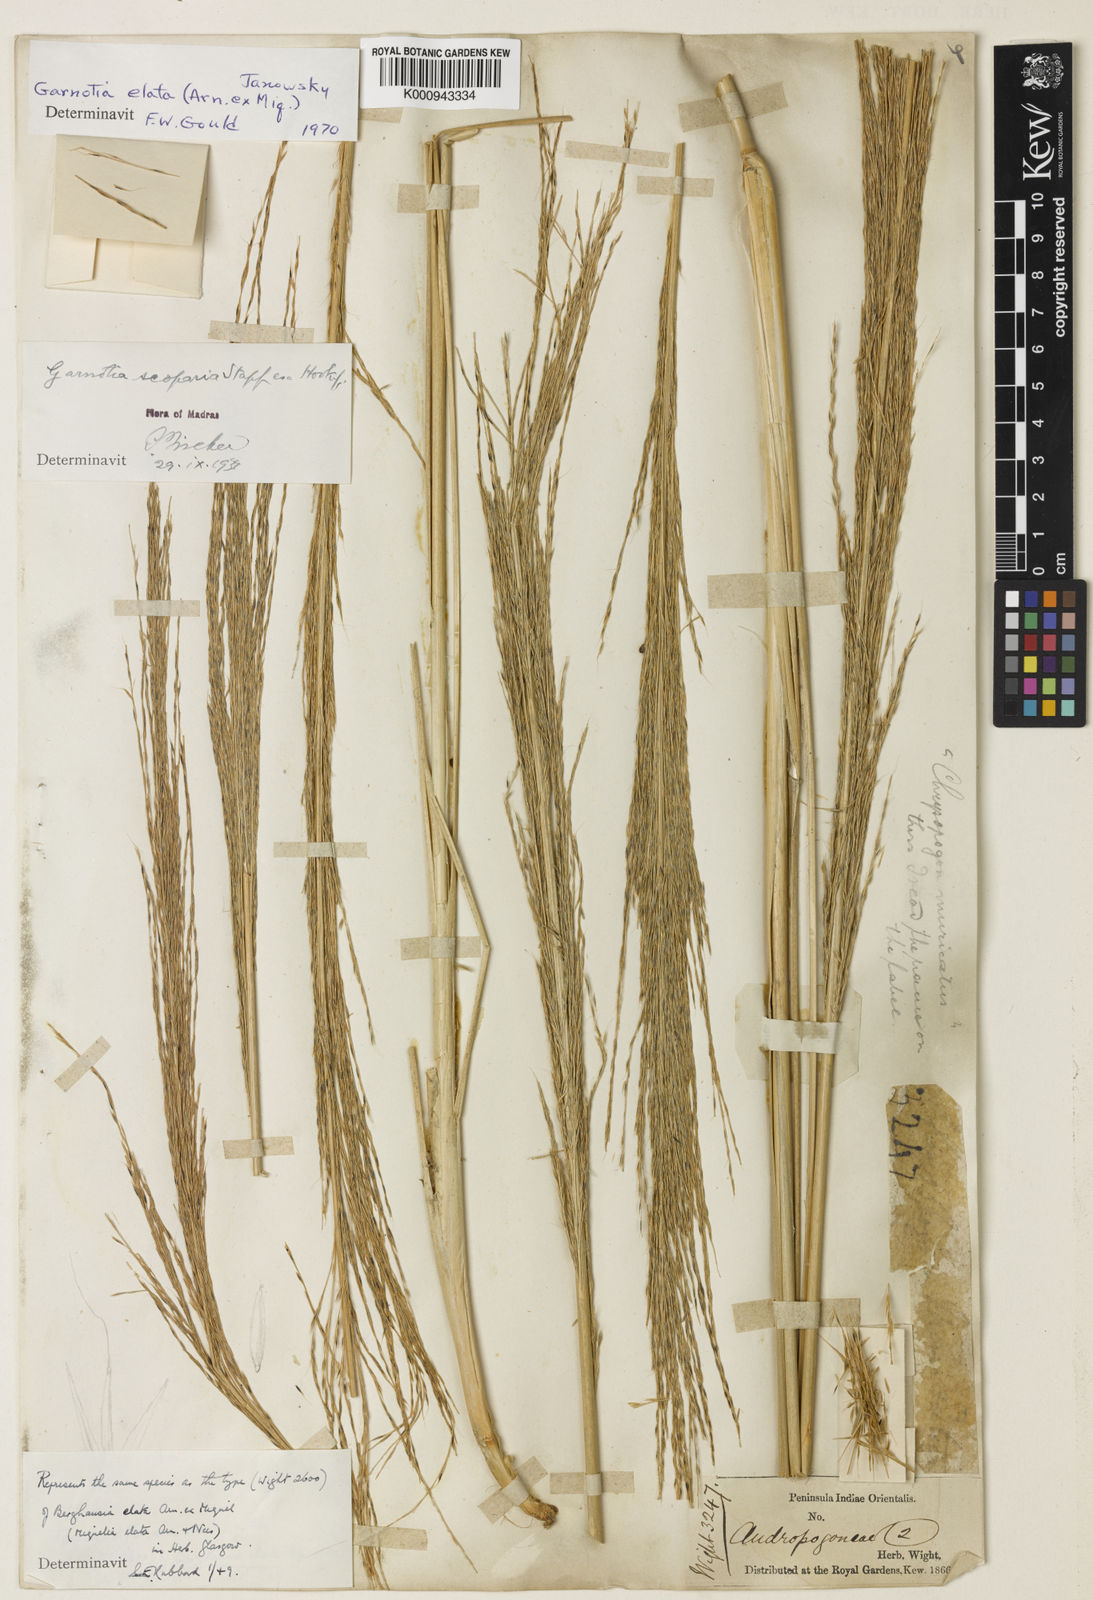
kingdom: Plantae
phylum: Tracheophyta
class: Liliopsida
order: Poales
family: Poaceae
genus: Garnotia
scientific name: Garnotia elata
